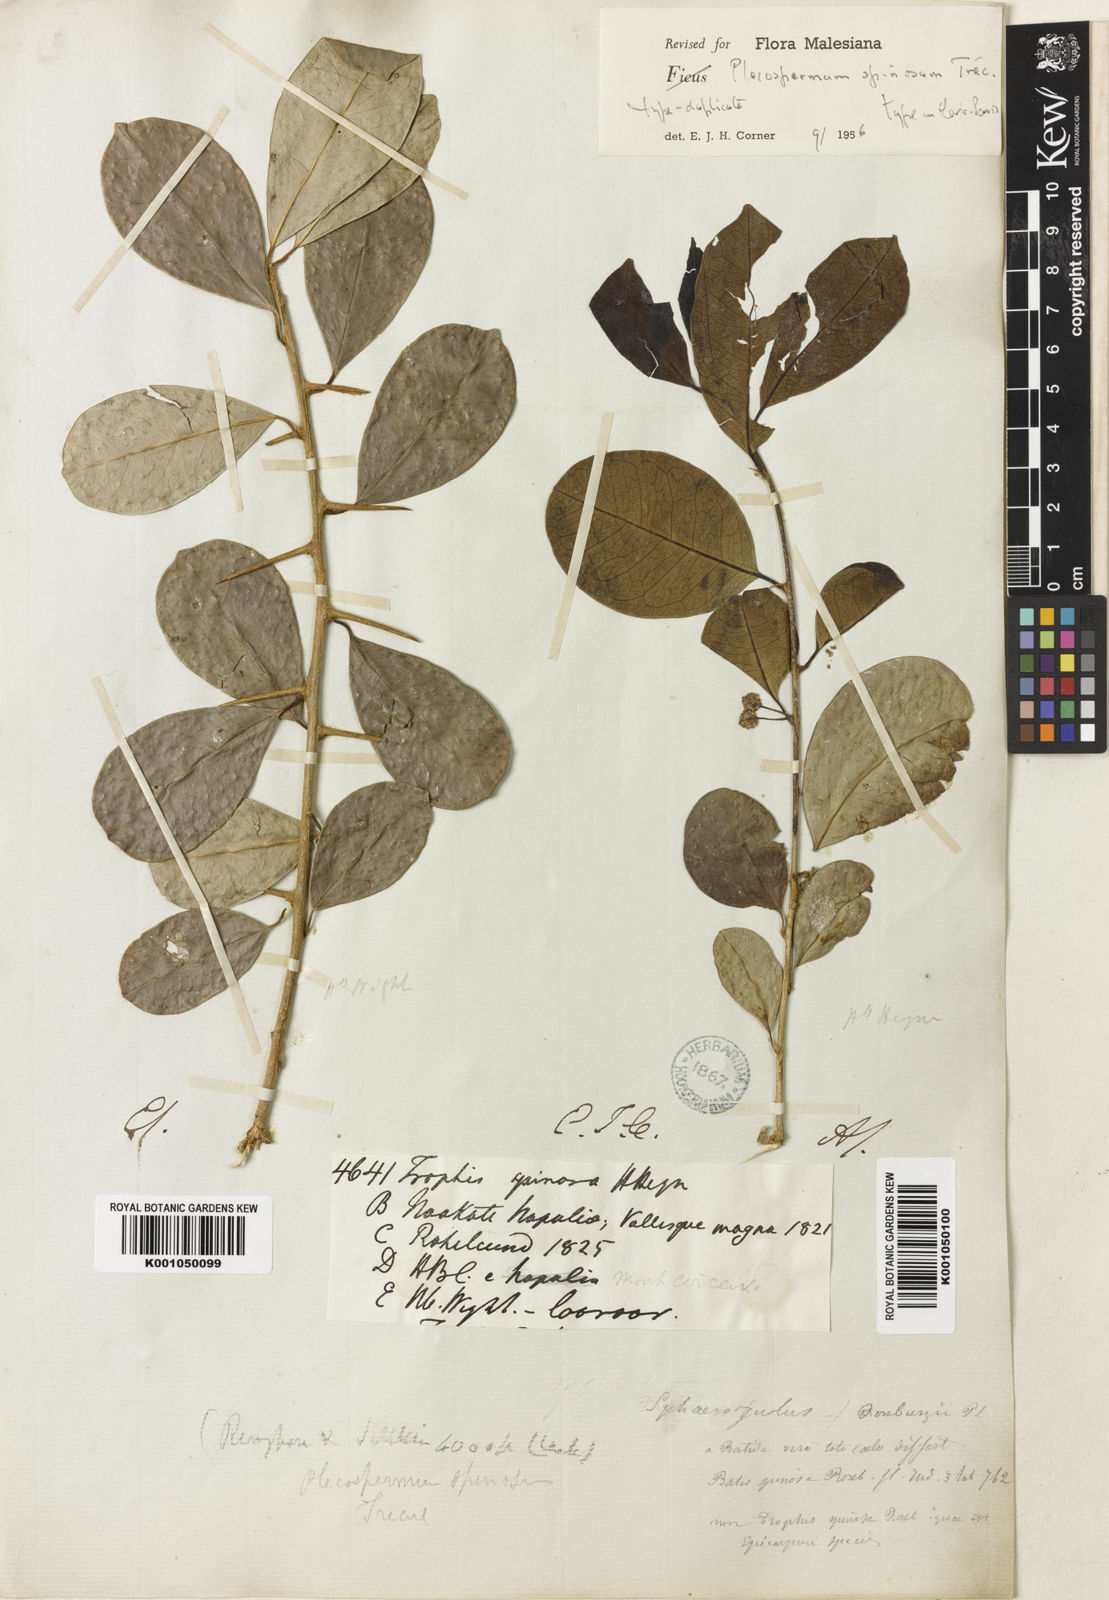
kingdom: Plantae
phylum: Tracheophyta
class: Magnoliopsida
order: Rosales
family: Moraceae
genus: Maclura
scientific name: Maclura spinosa
